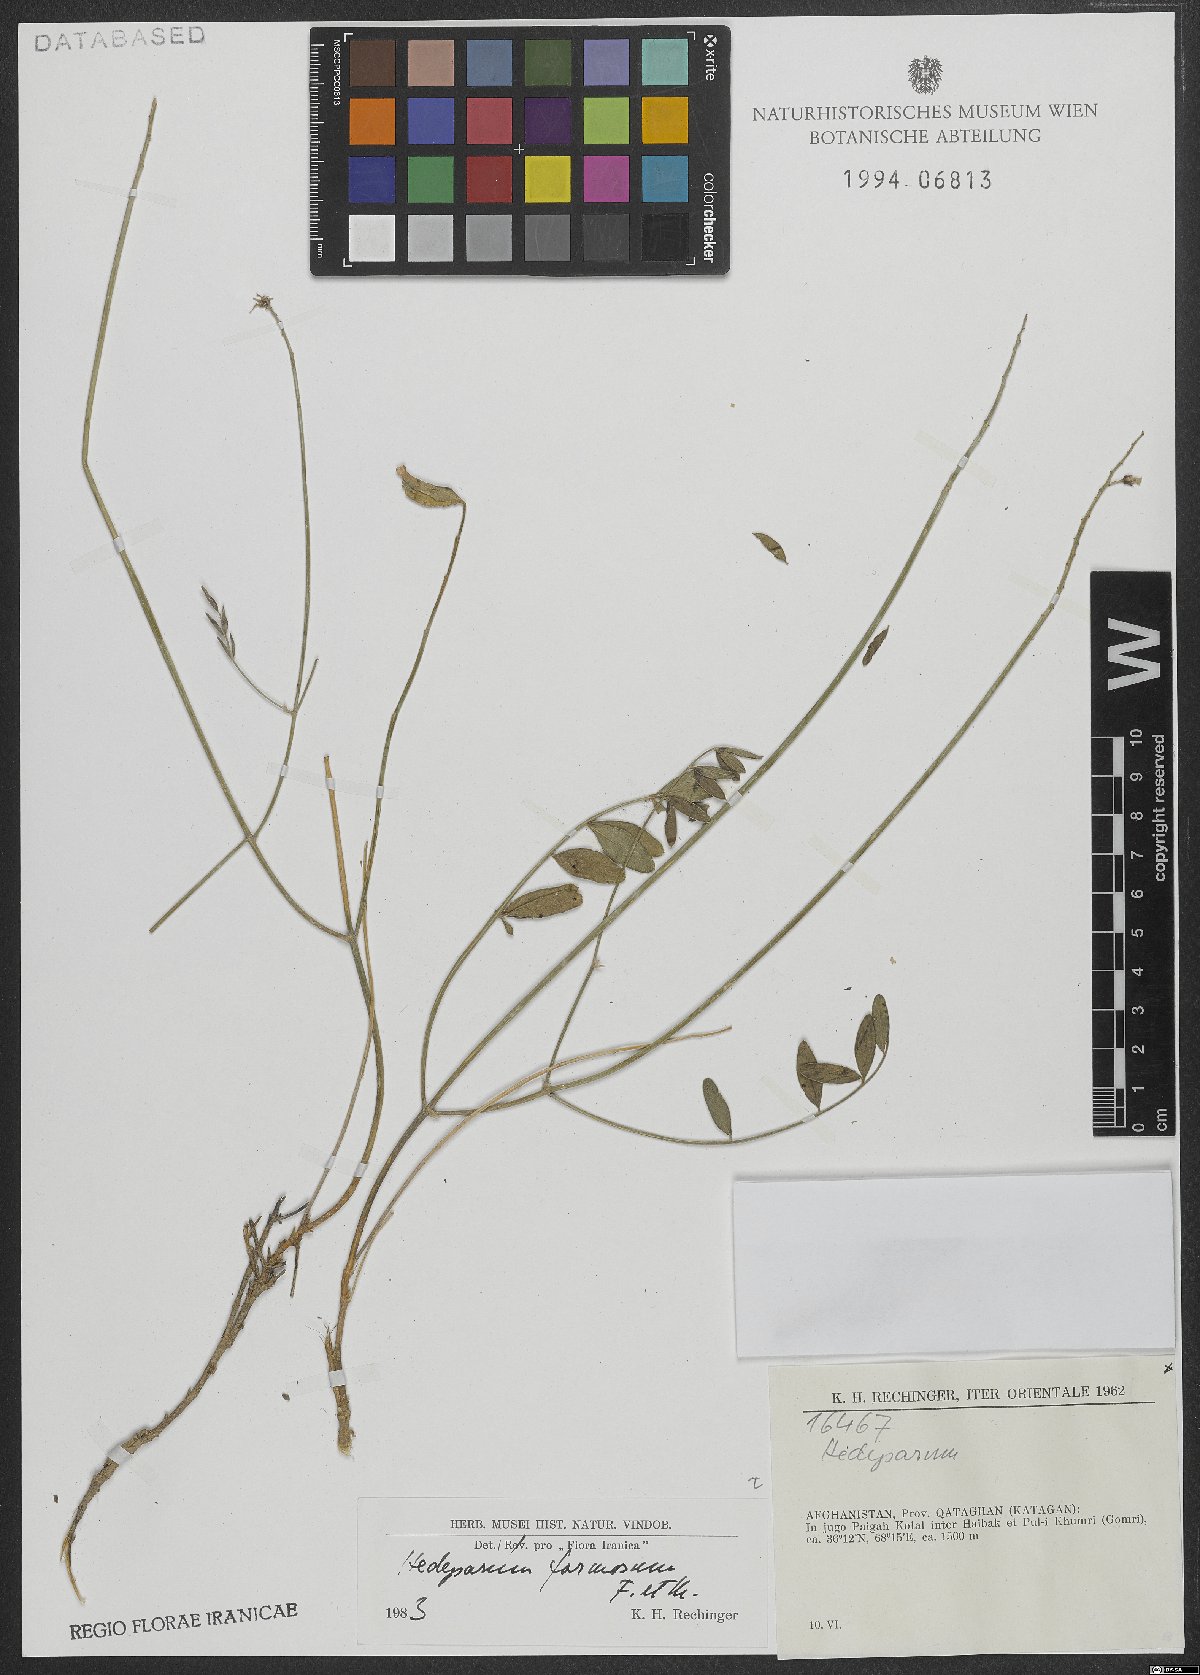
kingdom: Plantae
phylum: Tracheophyta
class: Magnoliopsida
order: Fabales
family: Fabaceae
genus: Hedysarum
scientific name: Hedysarum formosum
